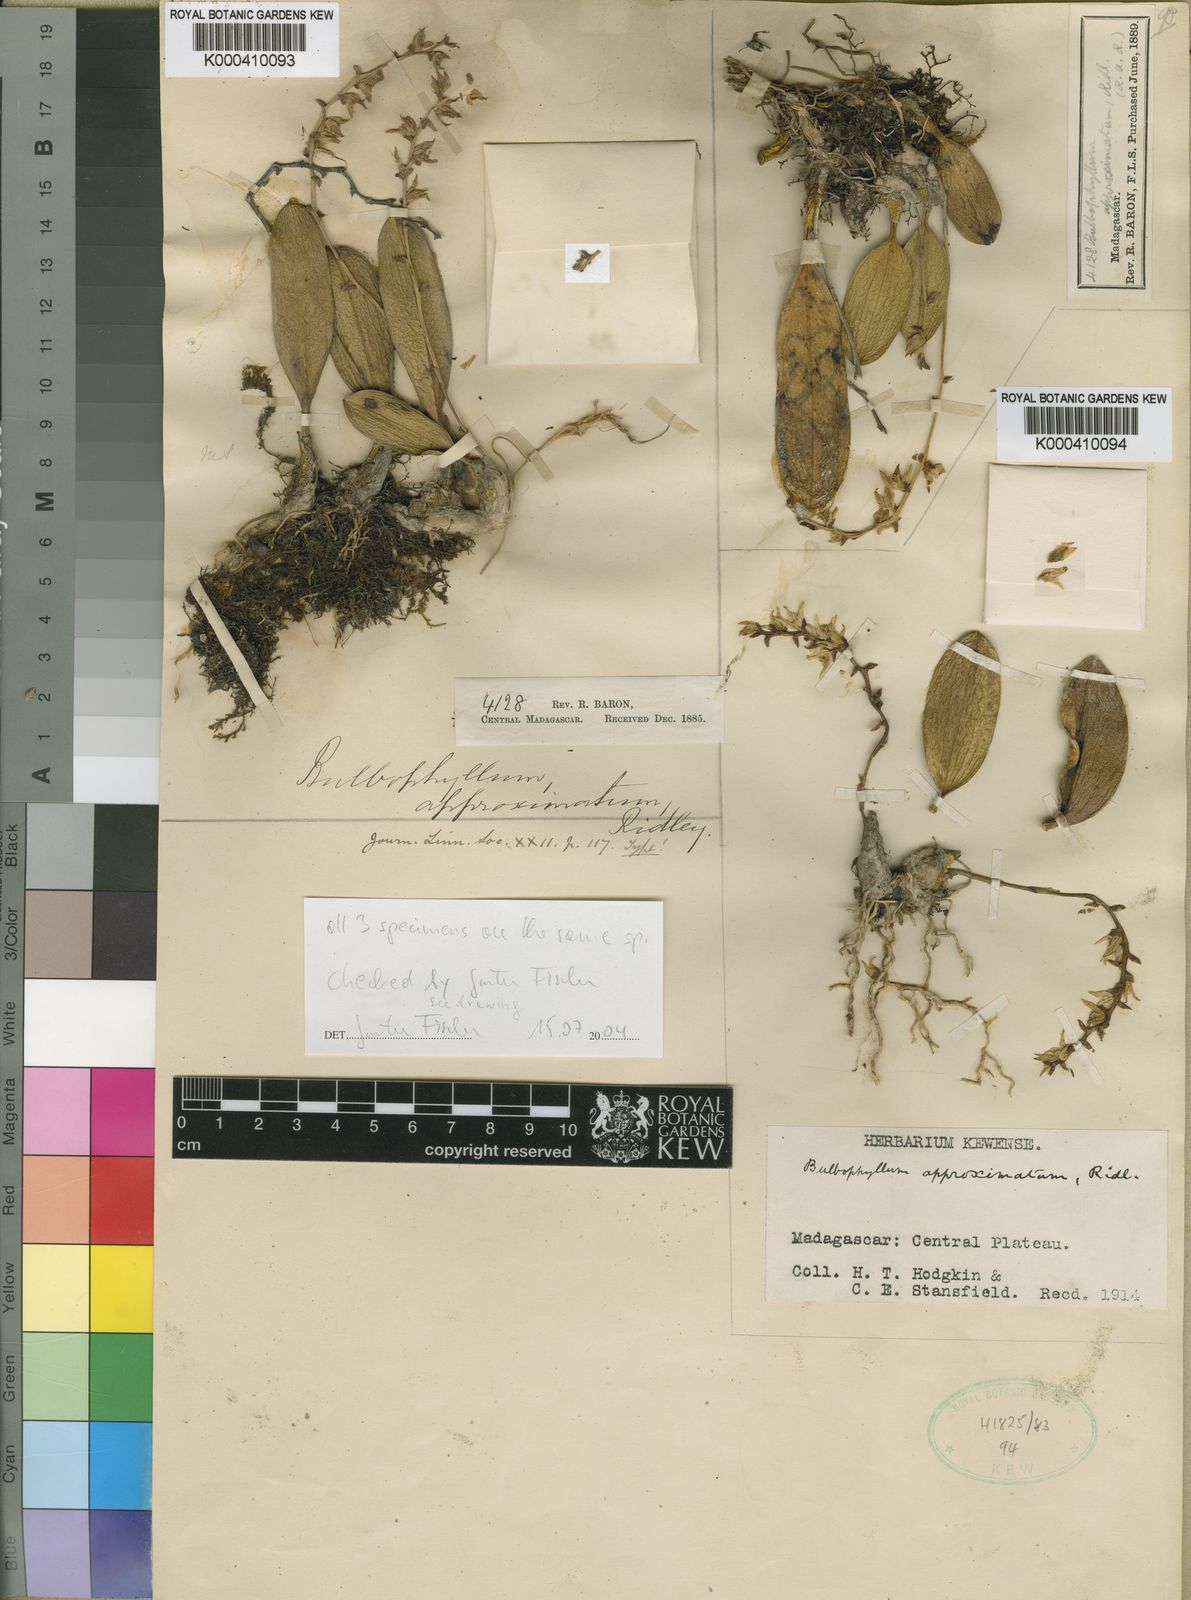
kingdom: Plantae
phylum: Tracheophyta
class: Liliopsida
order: Asparagales
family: Orchidaceae
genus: Bulbophyllum
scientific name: Bulbophyllum approximatum
